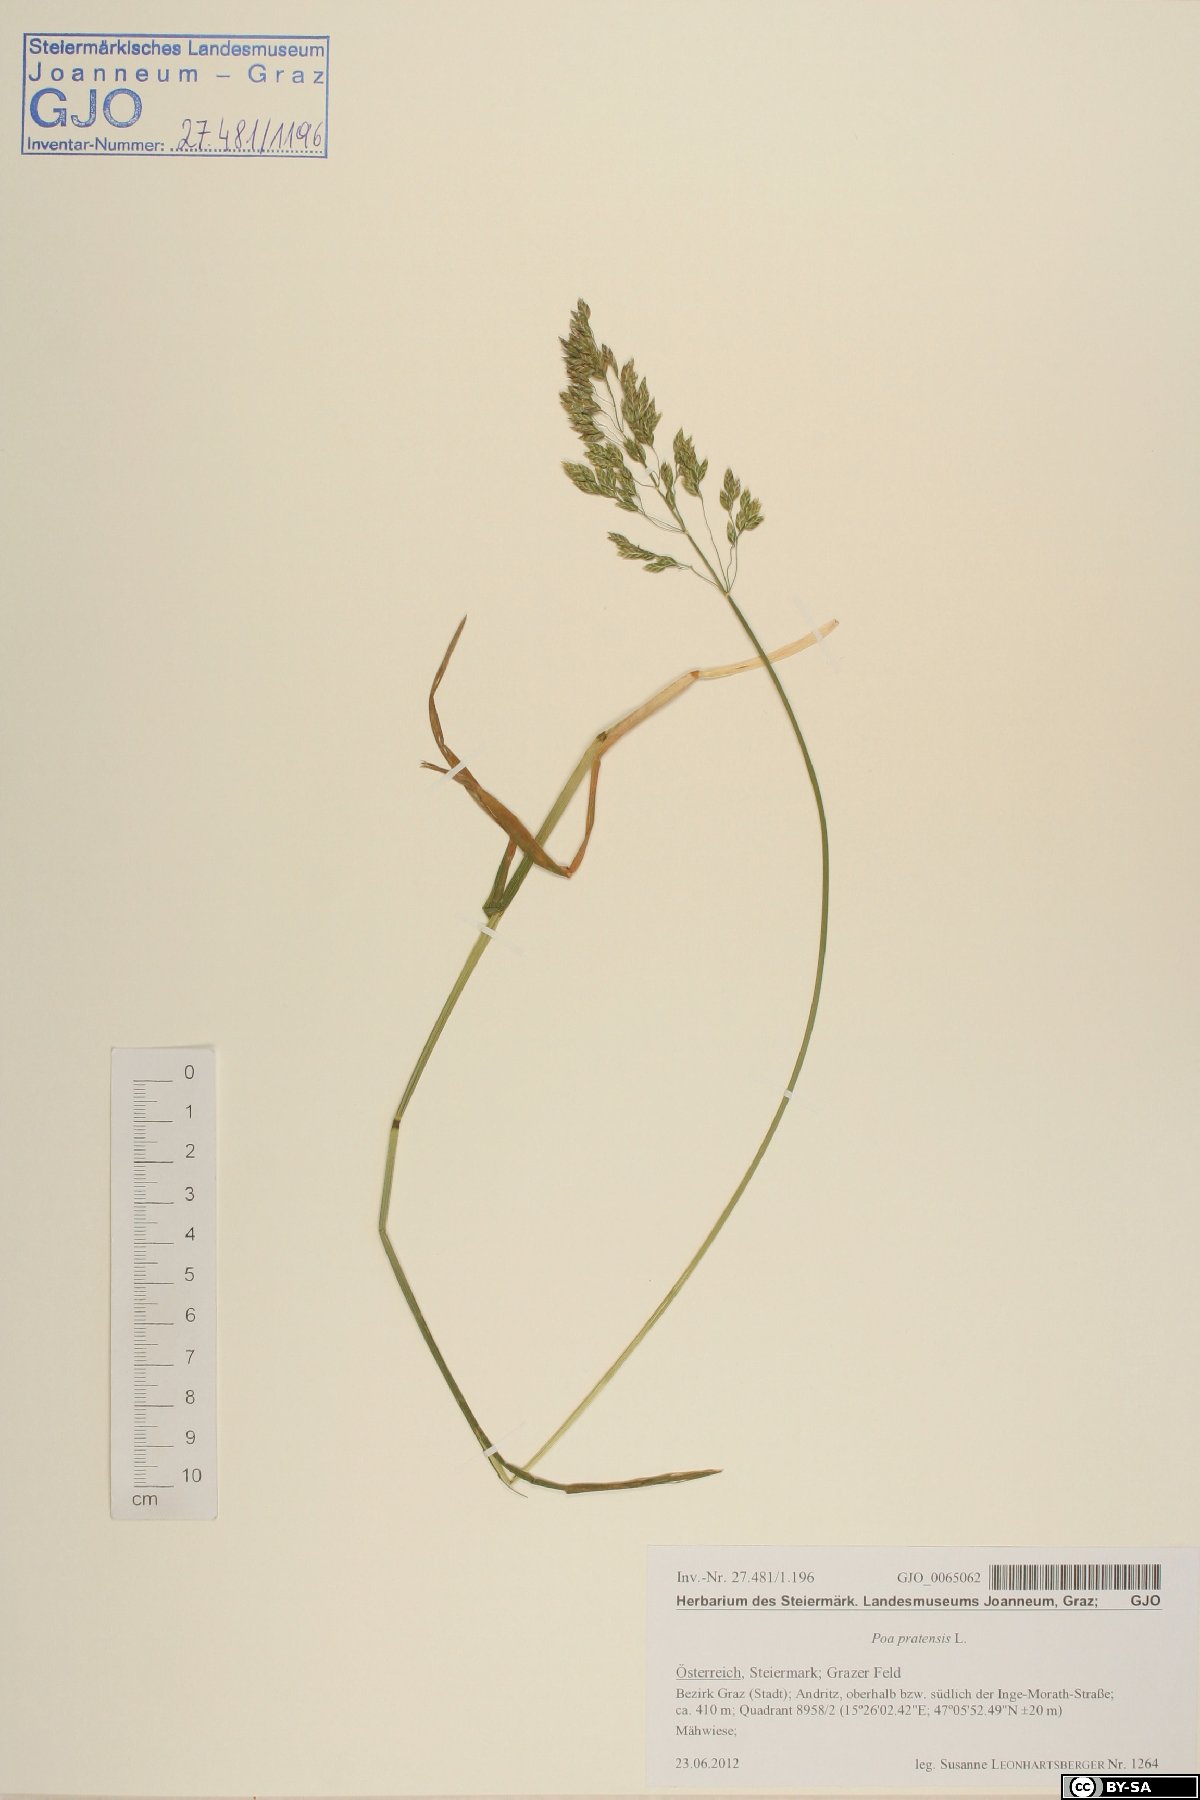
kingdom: Plantae
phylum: Tracheophyta
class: Liliopsida
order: Poales
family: Poaceae
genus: Poa
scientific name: Poa pratensis
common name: Kentucky bluegrass
